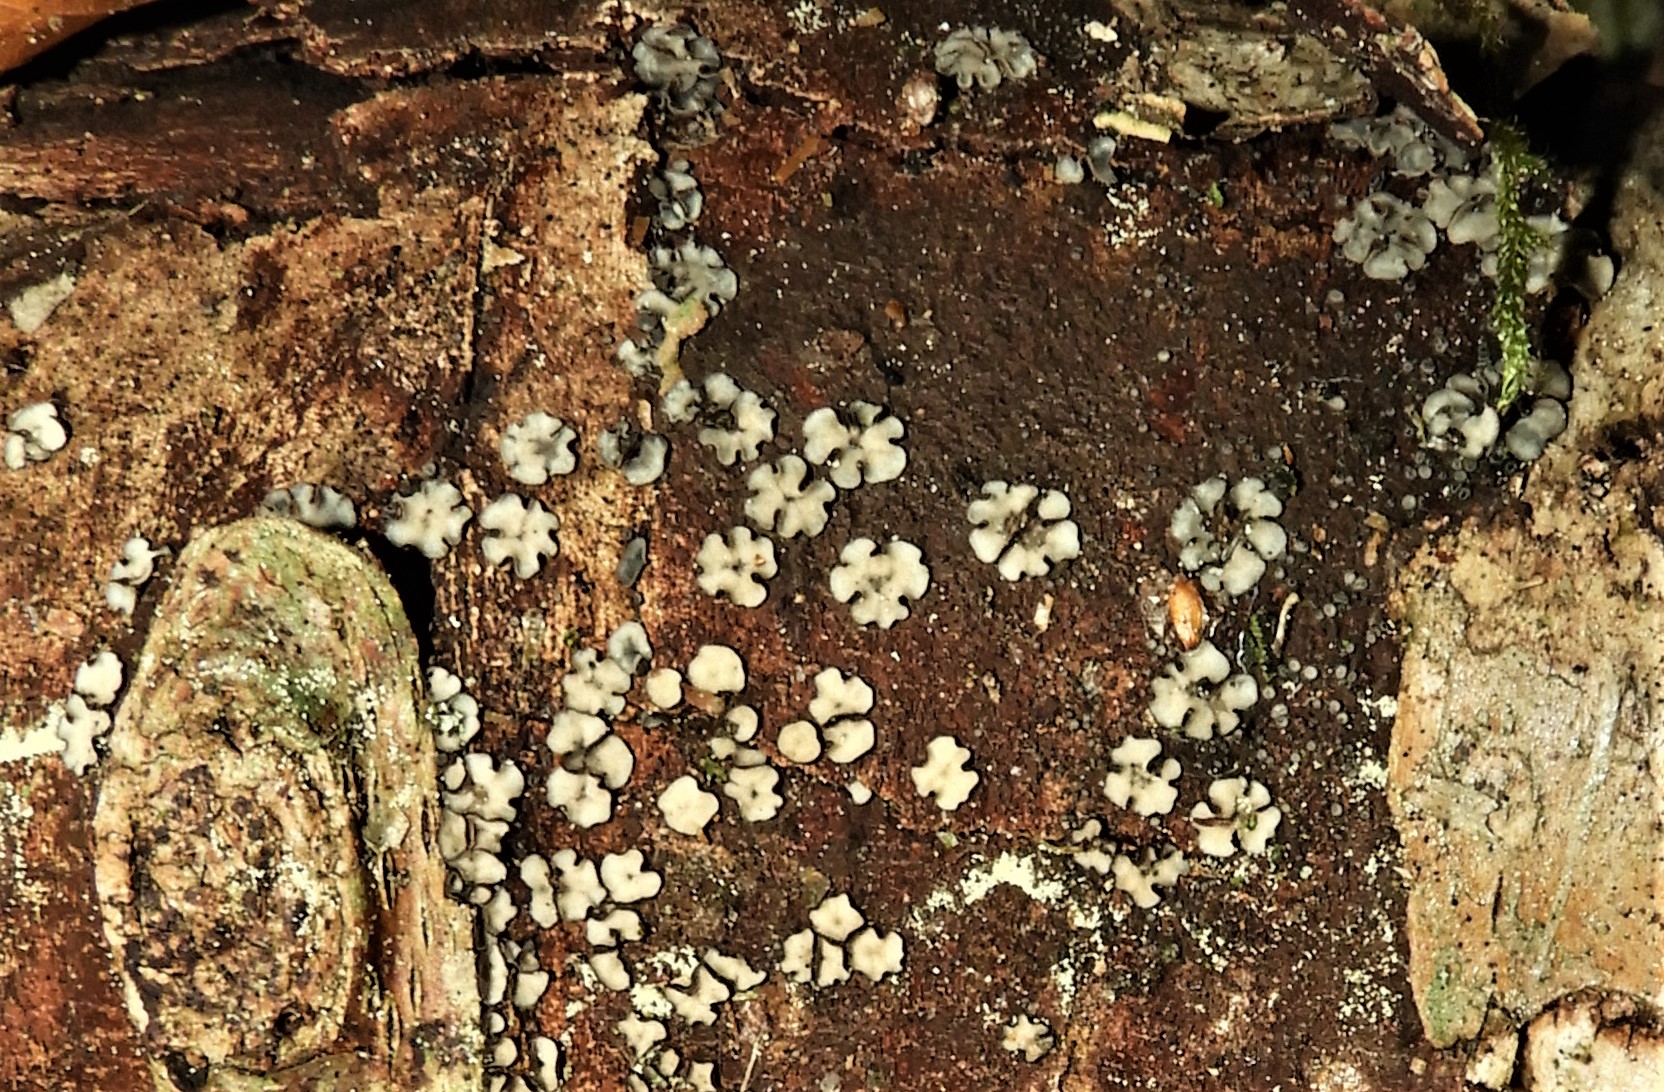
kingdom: Fungi
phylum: Ascomycota
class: Leotiomycetes
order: Helotiales
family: Mollisiaceae
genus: Mollisia
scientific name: Mollisia
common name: gråskive
